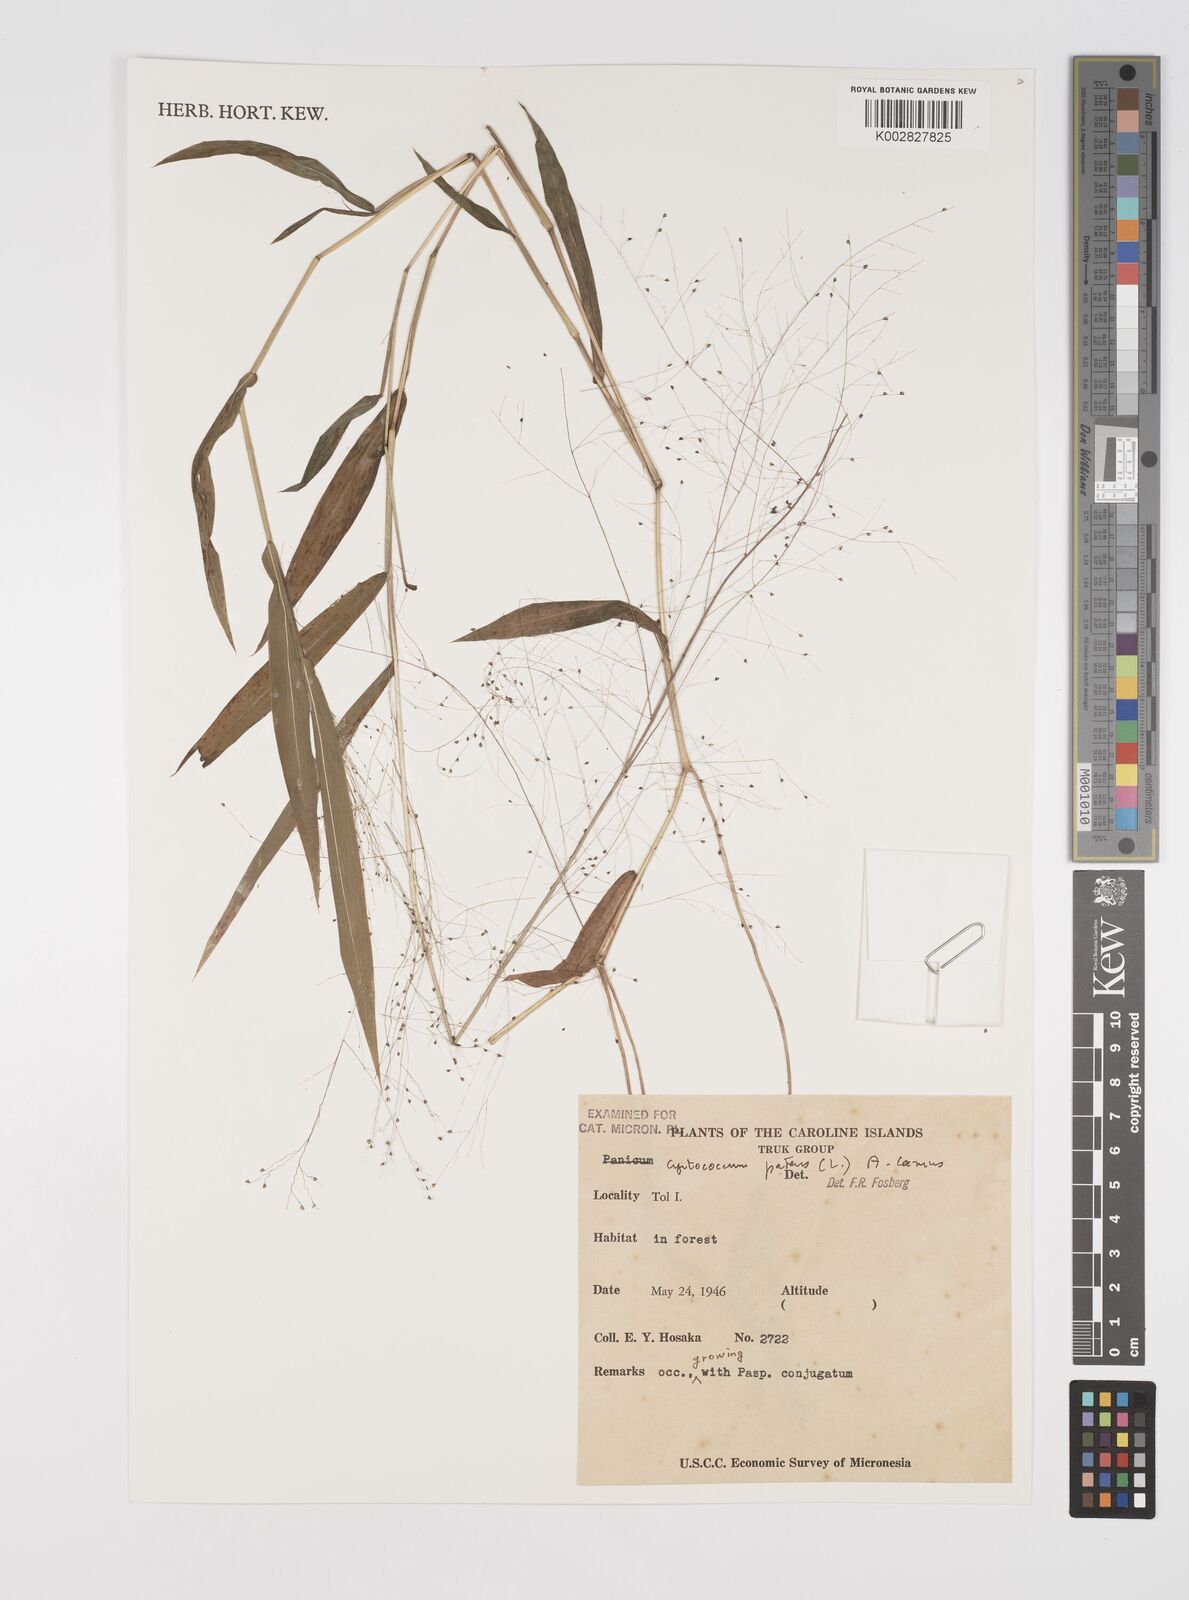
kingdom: Plantae
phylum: Tracheophyta
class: Liliopsida
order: Poales
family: Poaceae
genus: Cyrtococcum
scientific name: Cyrtococcum patens
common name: Broad-leaved bowgrass
